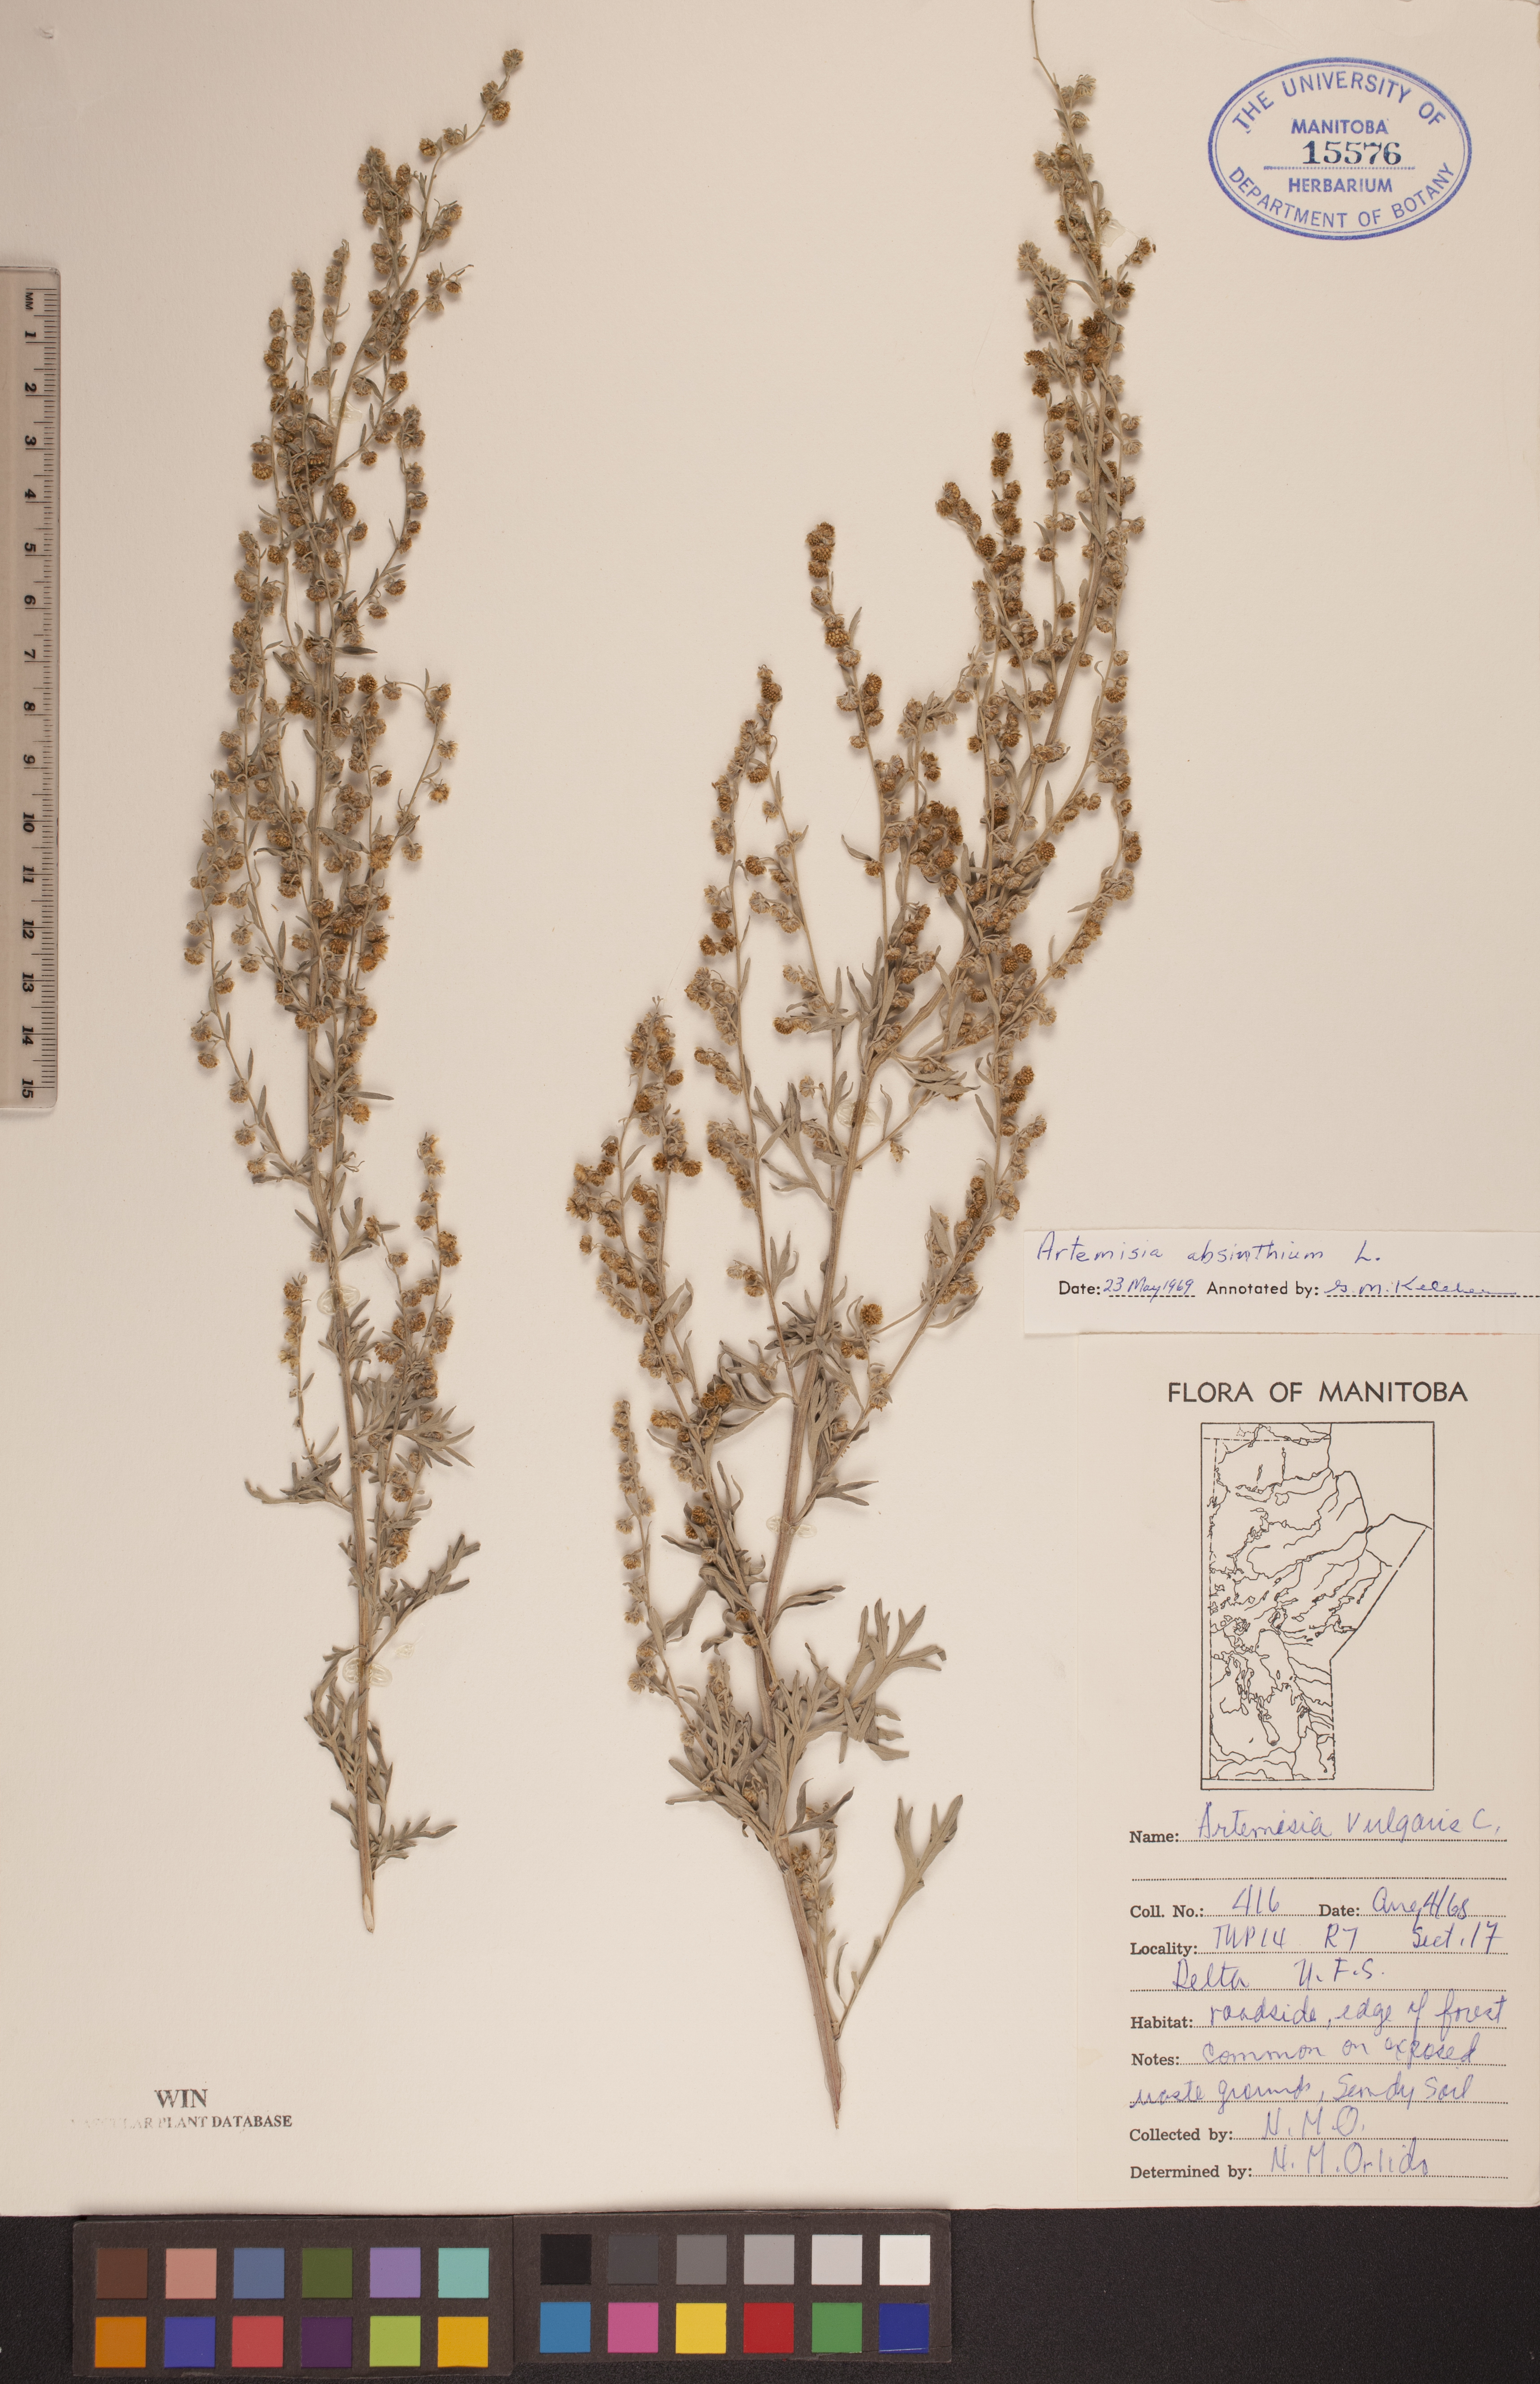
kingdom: Plantae
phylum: Tracheophyta
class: Magnoliopsida
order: Asterales
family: Asteraceae
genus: Artemisia
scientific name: Artemisia absinthium
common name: Wormwood
